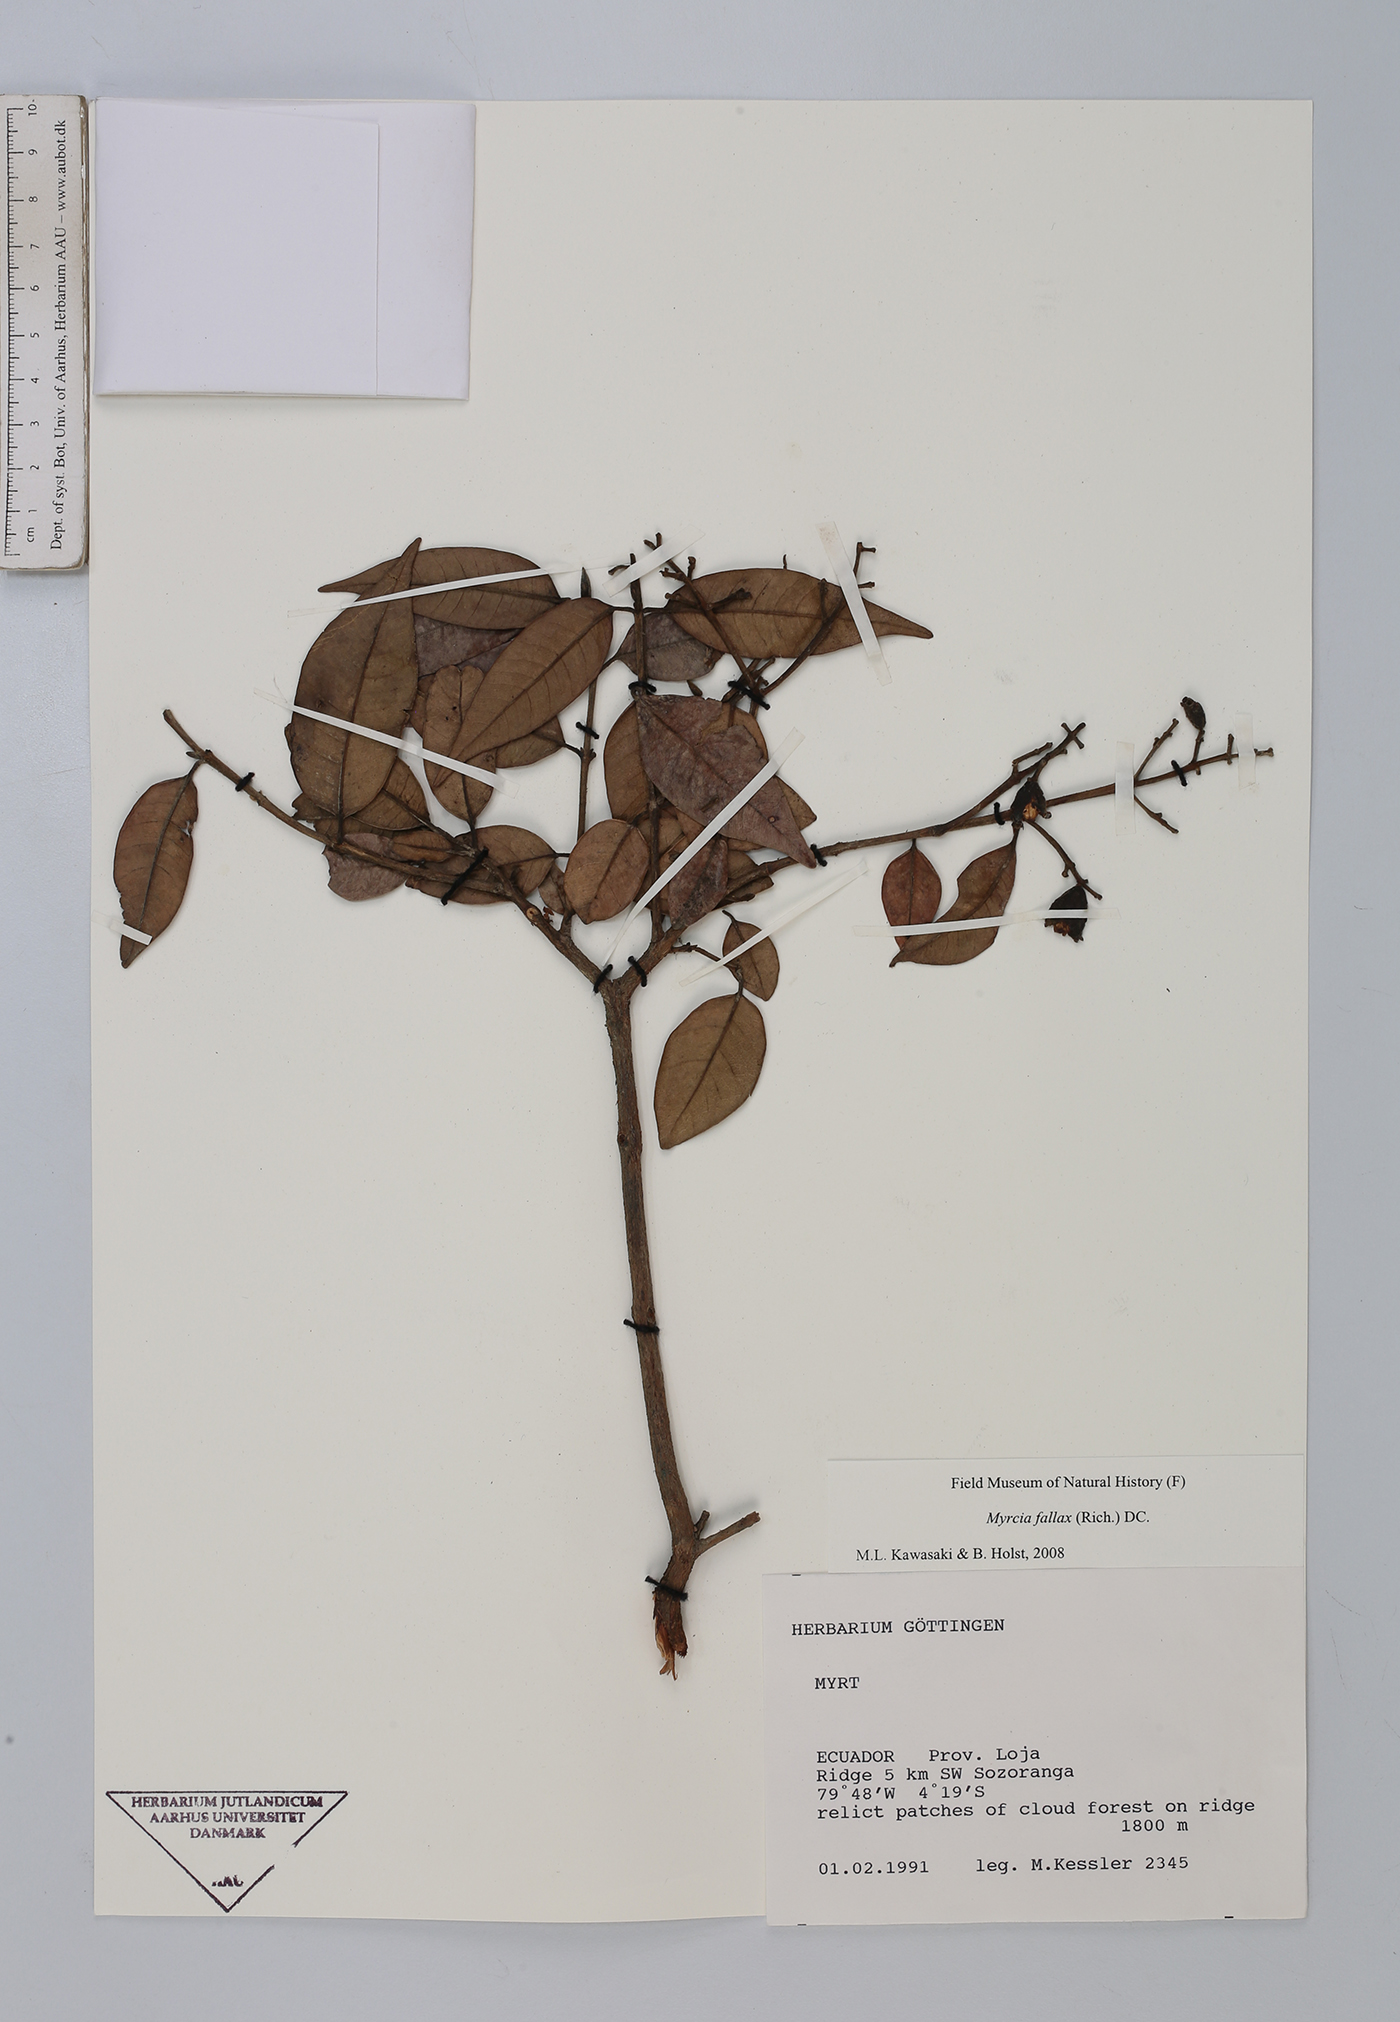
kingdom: Plantae
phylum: Tracheophyta
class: Magnoliopsida
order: Myrtales
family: Myrtaceae
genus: Myrcia
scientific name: Myrcia splendens
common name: Surinam cherry
